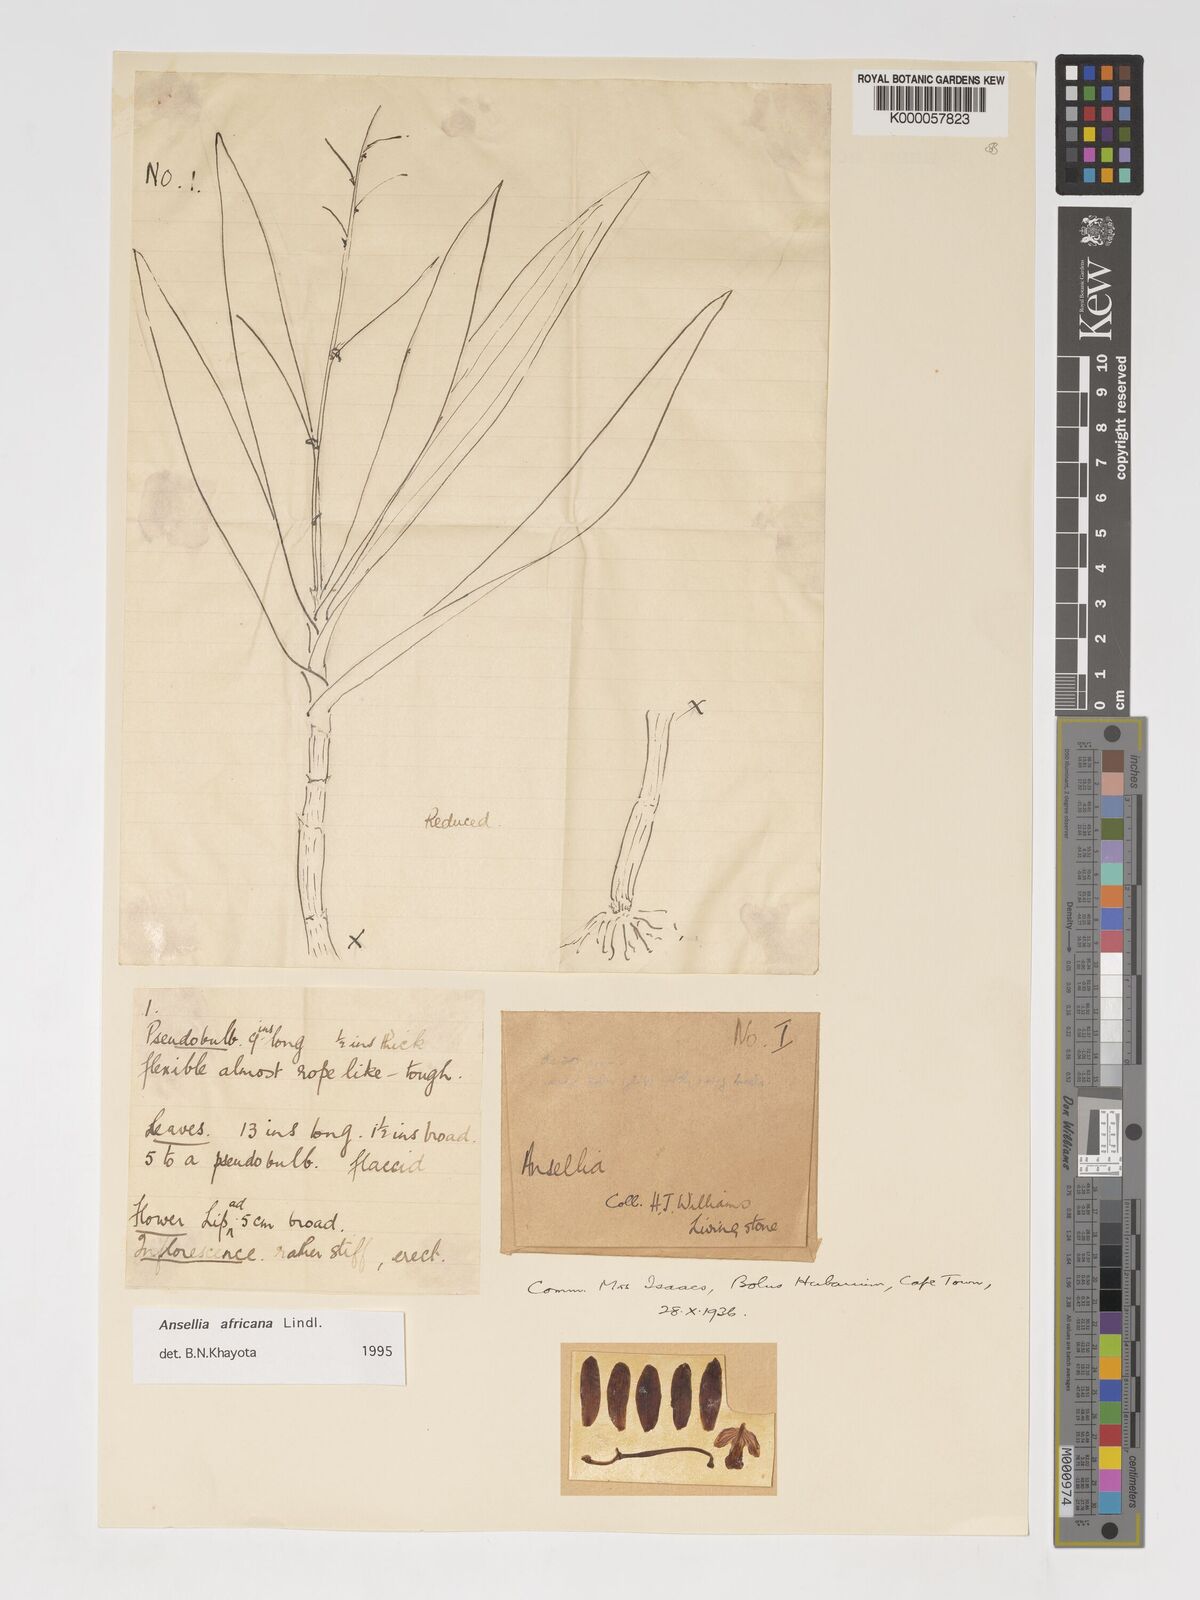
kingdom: Plantae
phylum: Tracheophyta
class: Liliopsida
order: Asparagales
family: Orchidaceae
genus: Ansellia
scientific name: Ansellia africana
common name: African ansellia
